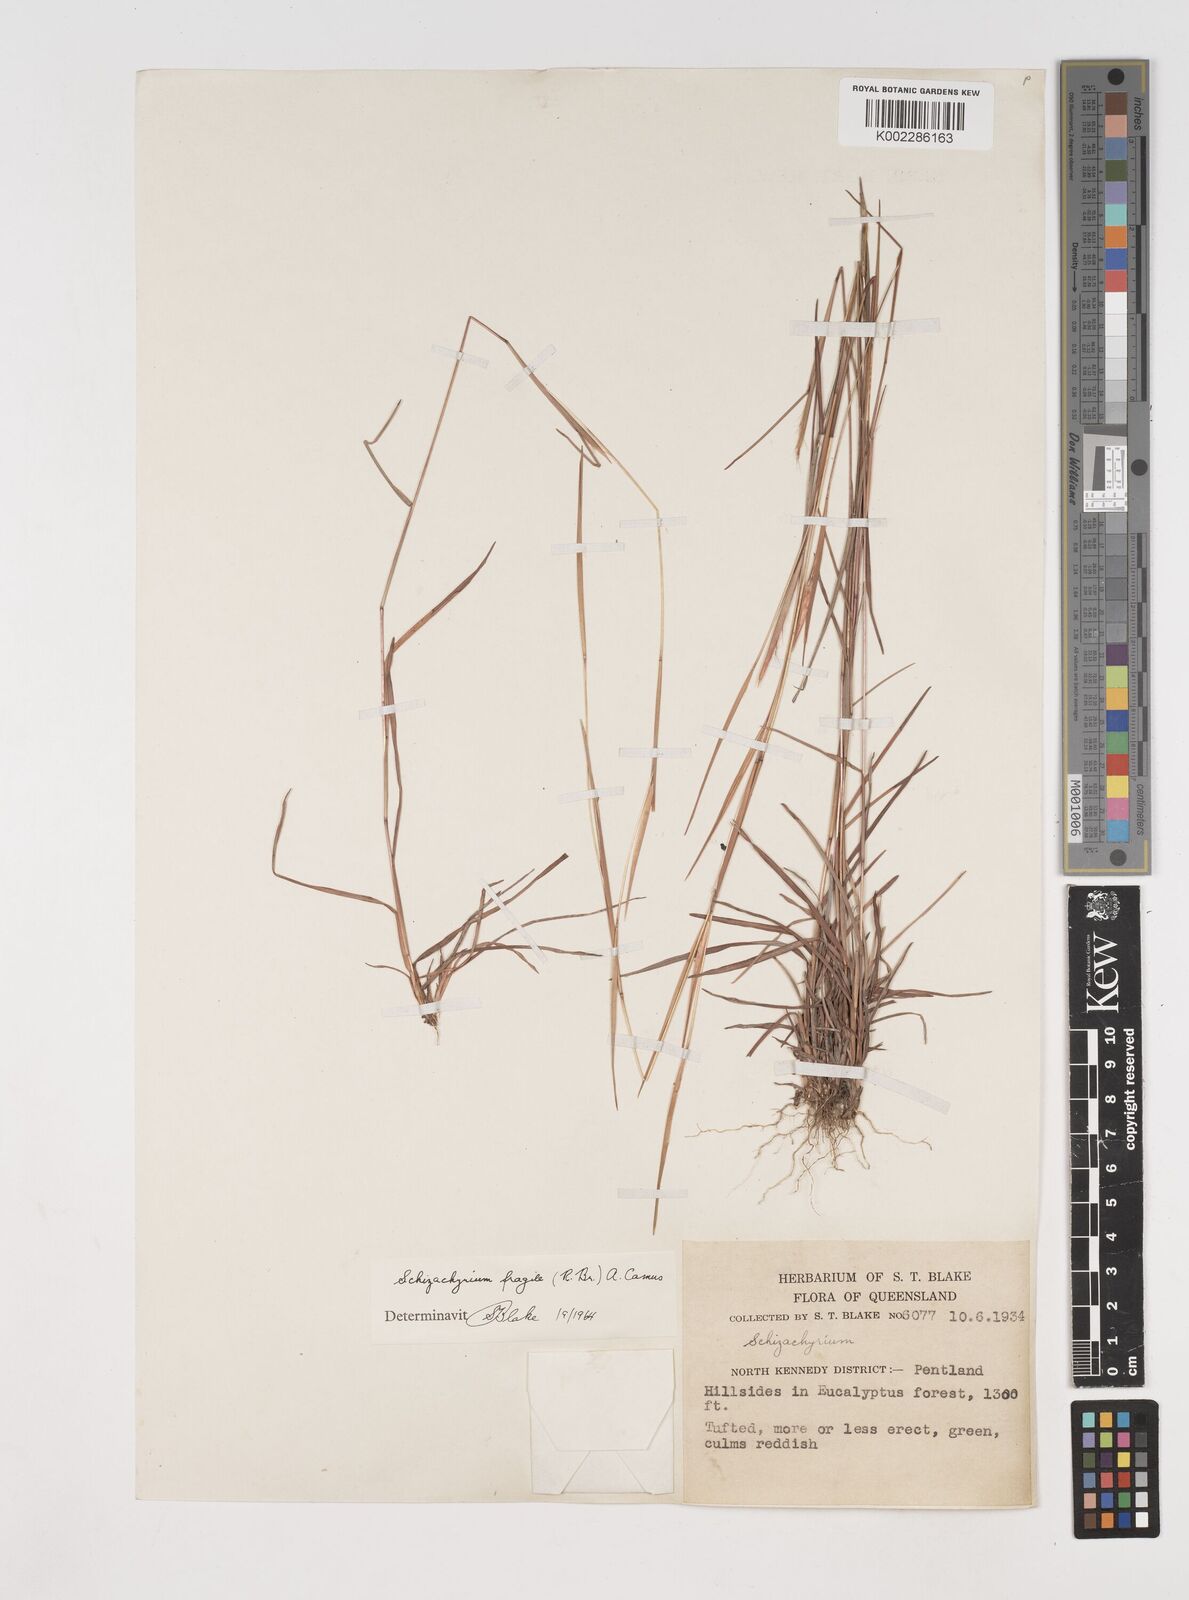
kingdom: Plantae
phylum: Tracheophyta
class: Liliopsida
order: Poales
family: Poaceae
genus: Schizachyrium
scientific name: Schizachyrium fragile
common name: Red spathe grass
